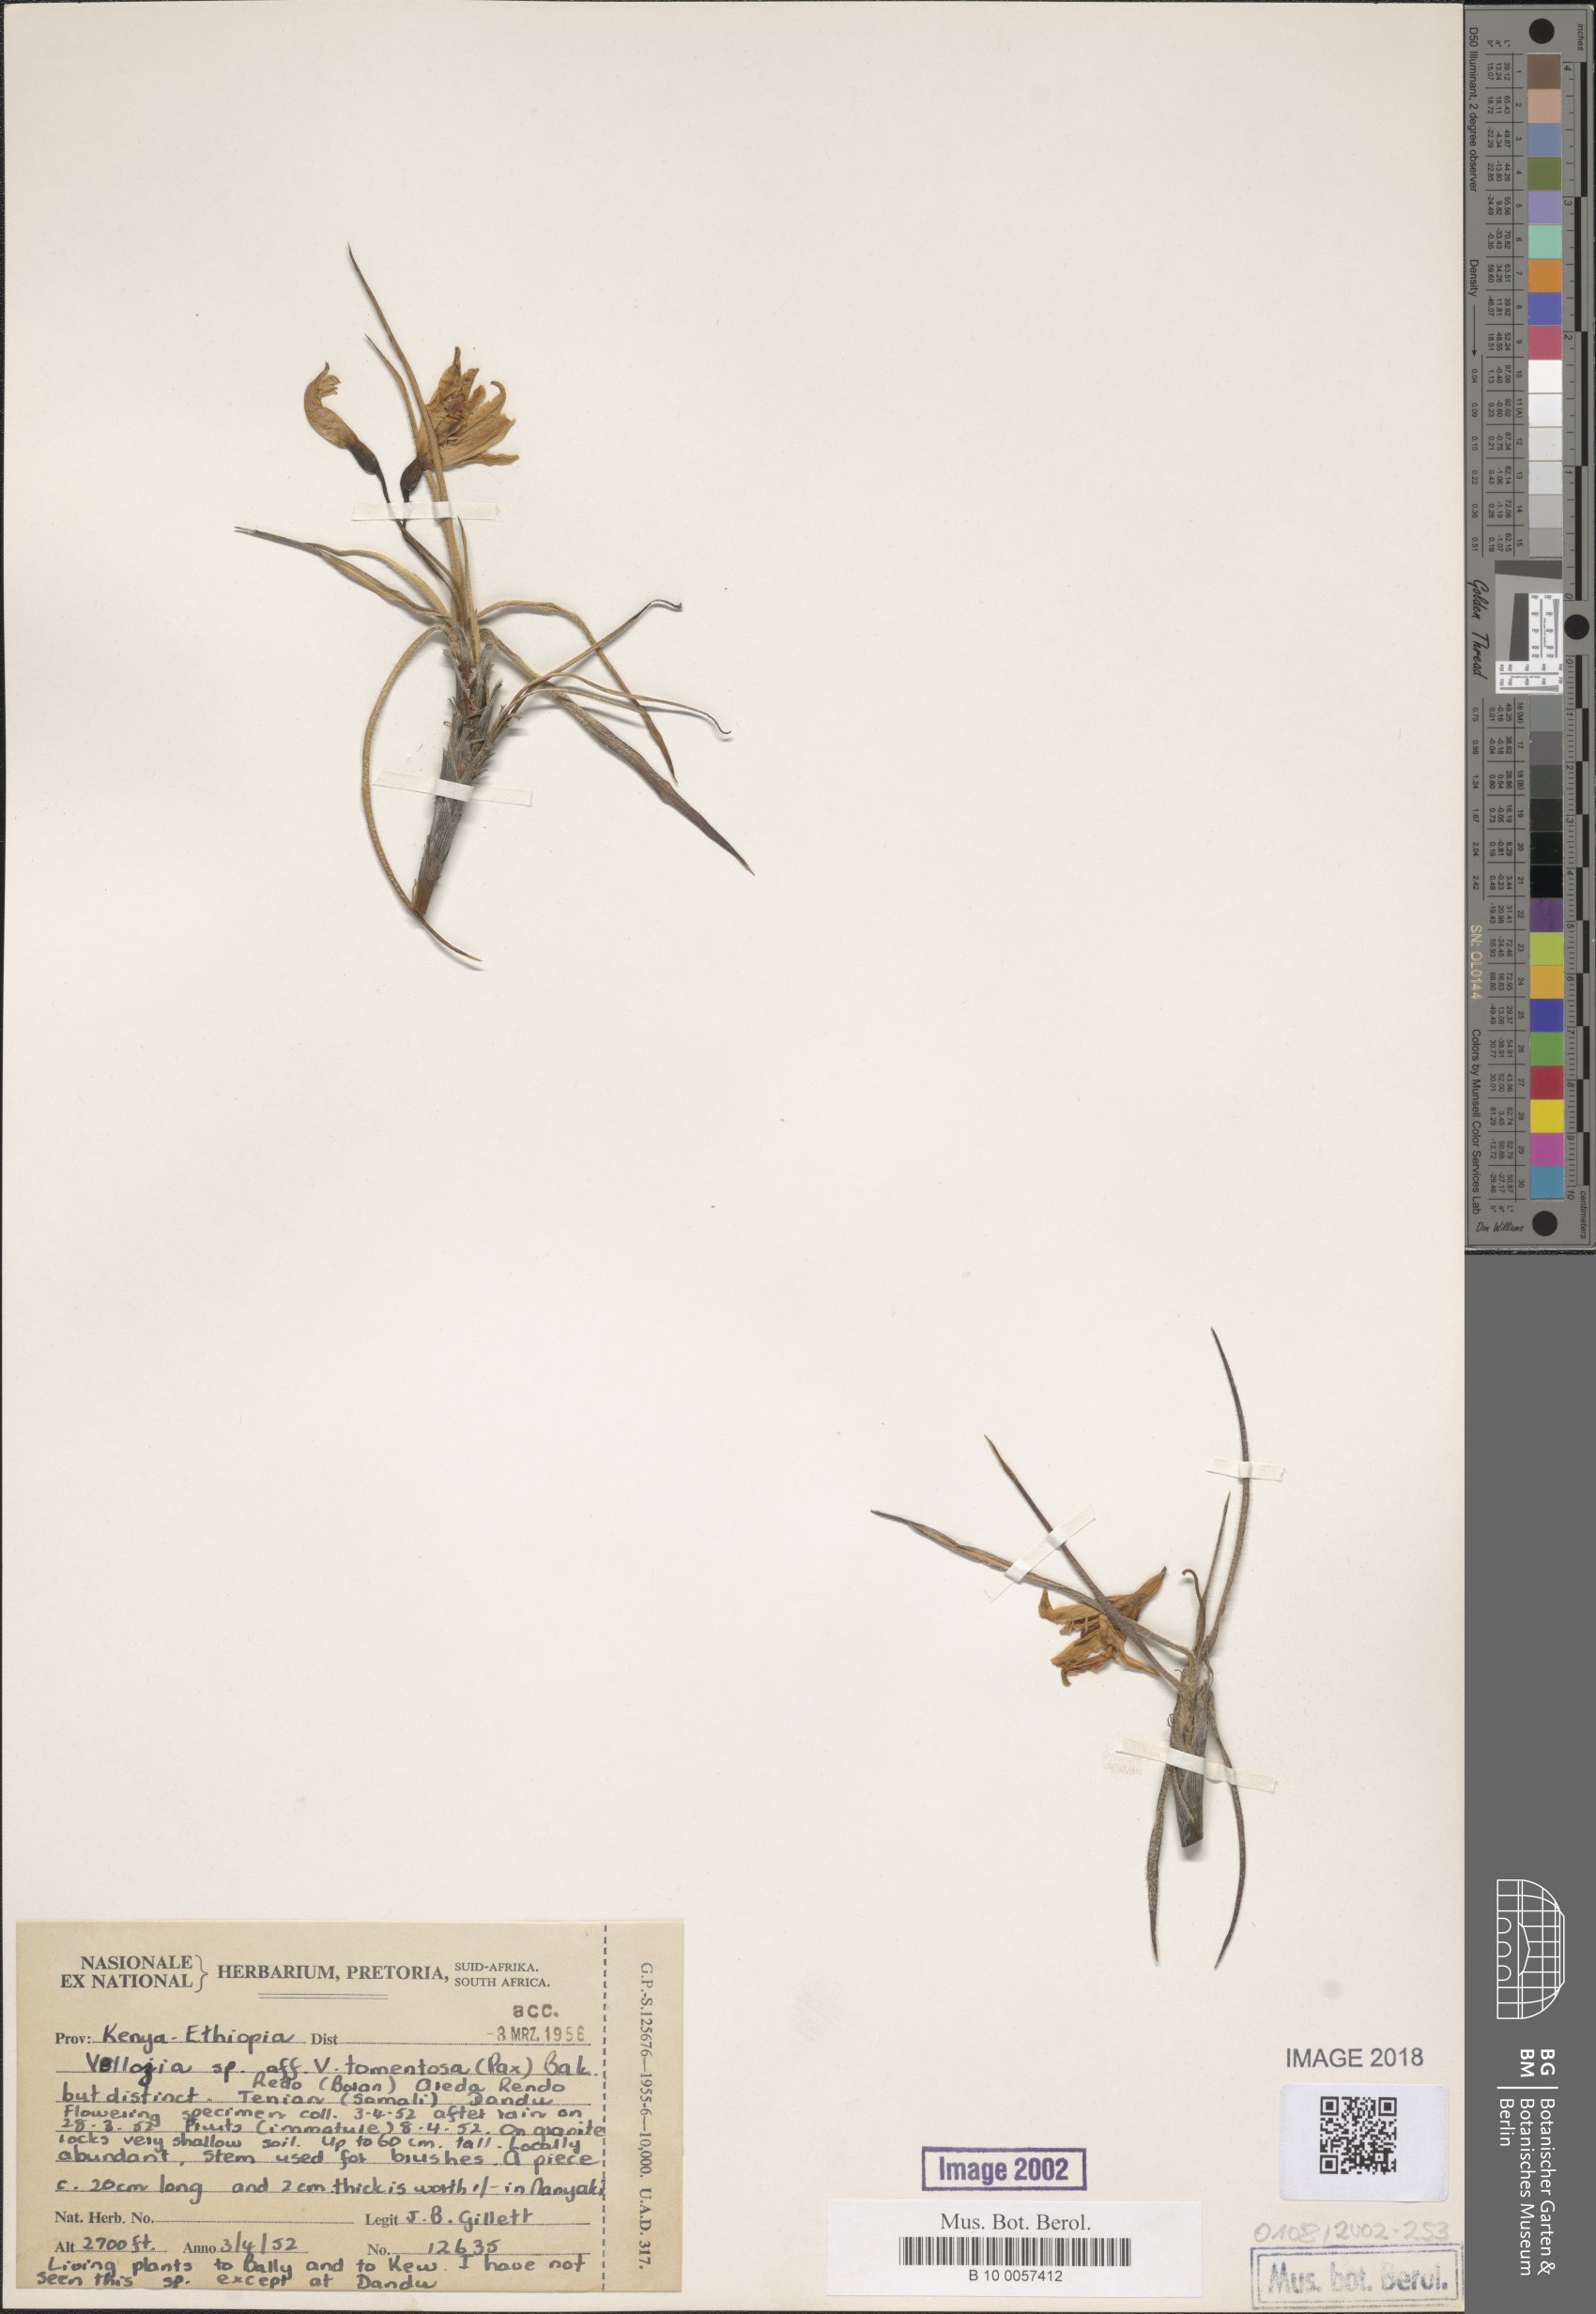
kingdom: Plantae
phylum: Tracheophyta
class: Liliopsida
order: Pandanales
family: Velloziaceae
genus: Xerophyta
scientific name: Xerophyta
